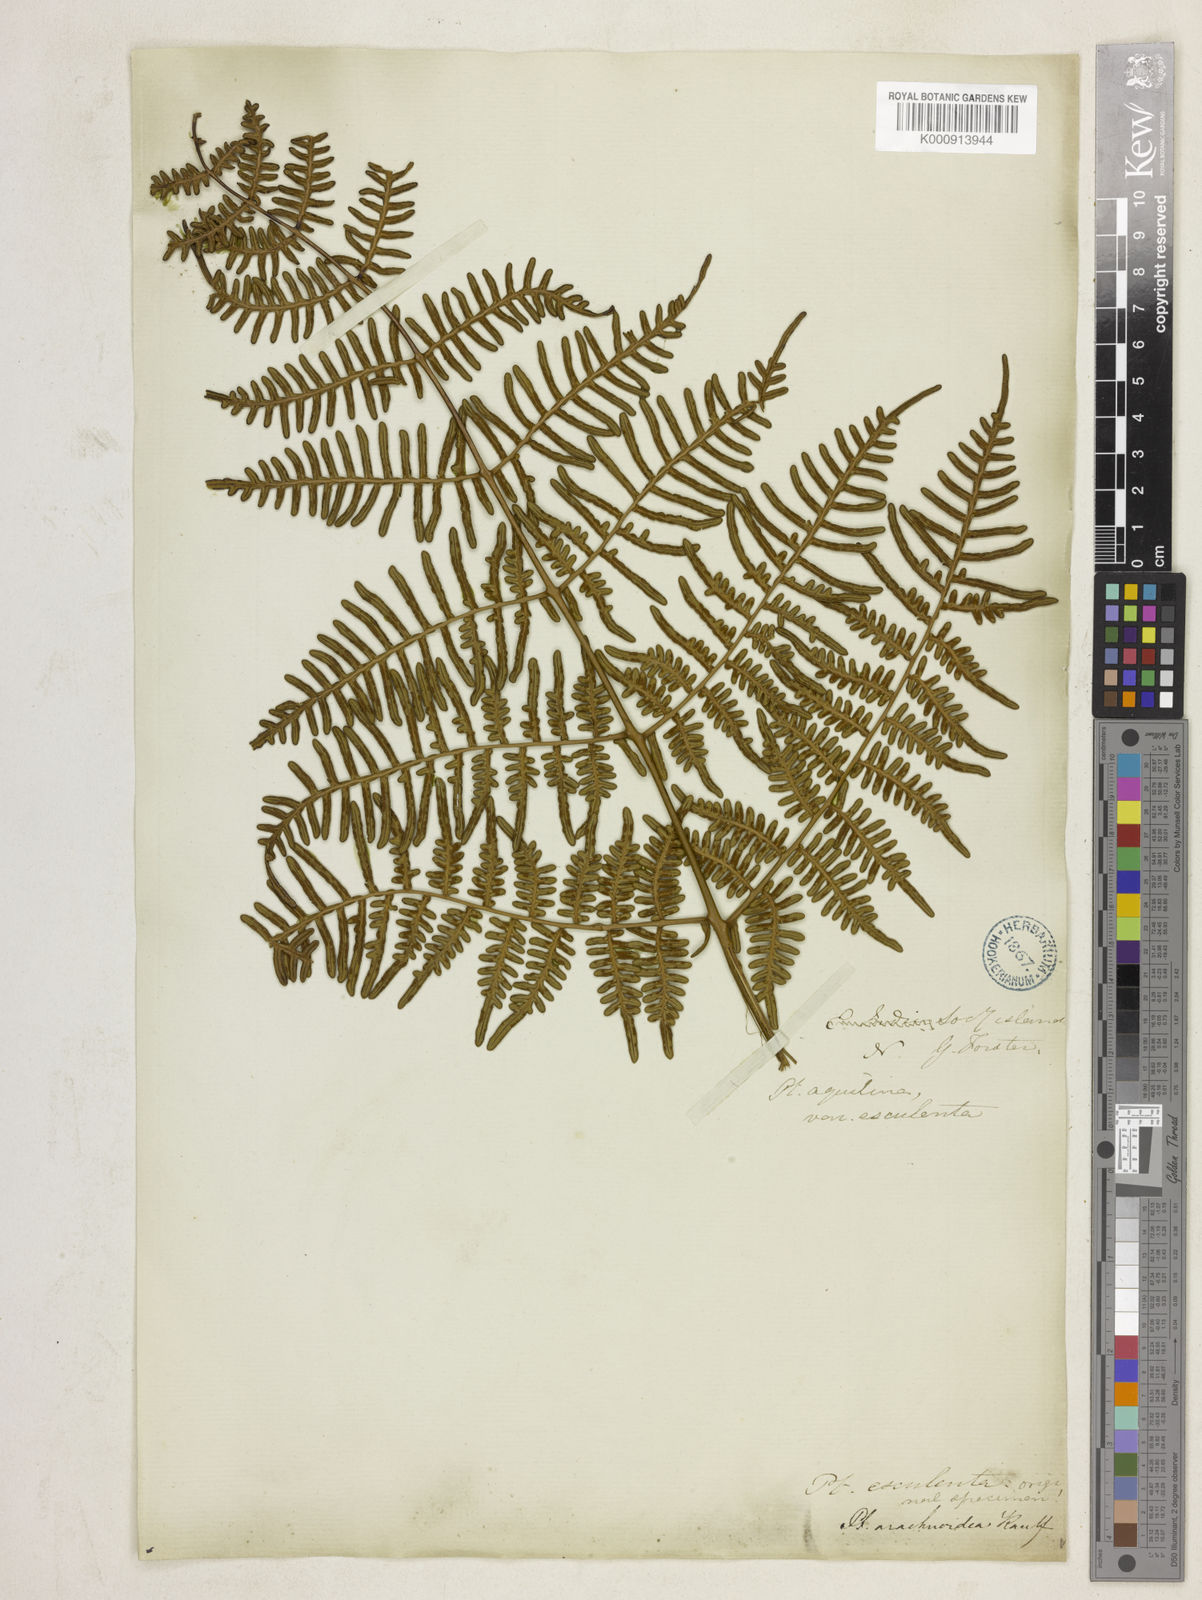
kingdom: Plantae
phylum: Tracheophyta
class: Polypodiopsida
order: Polypodiales
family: Dennstaedtiaceae
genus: Pteridium
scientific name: Pteridium esculentum
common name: Bracken fern
